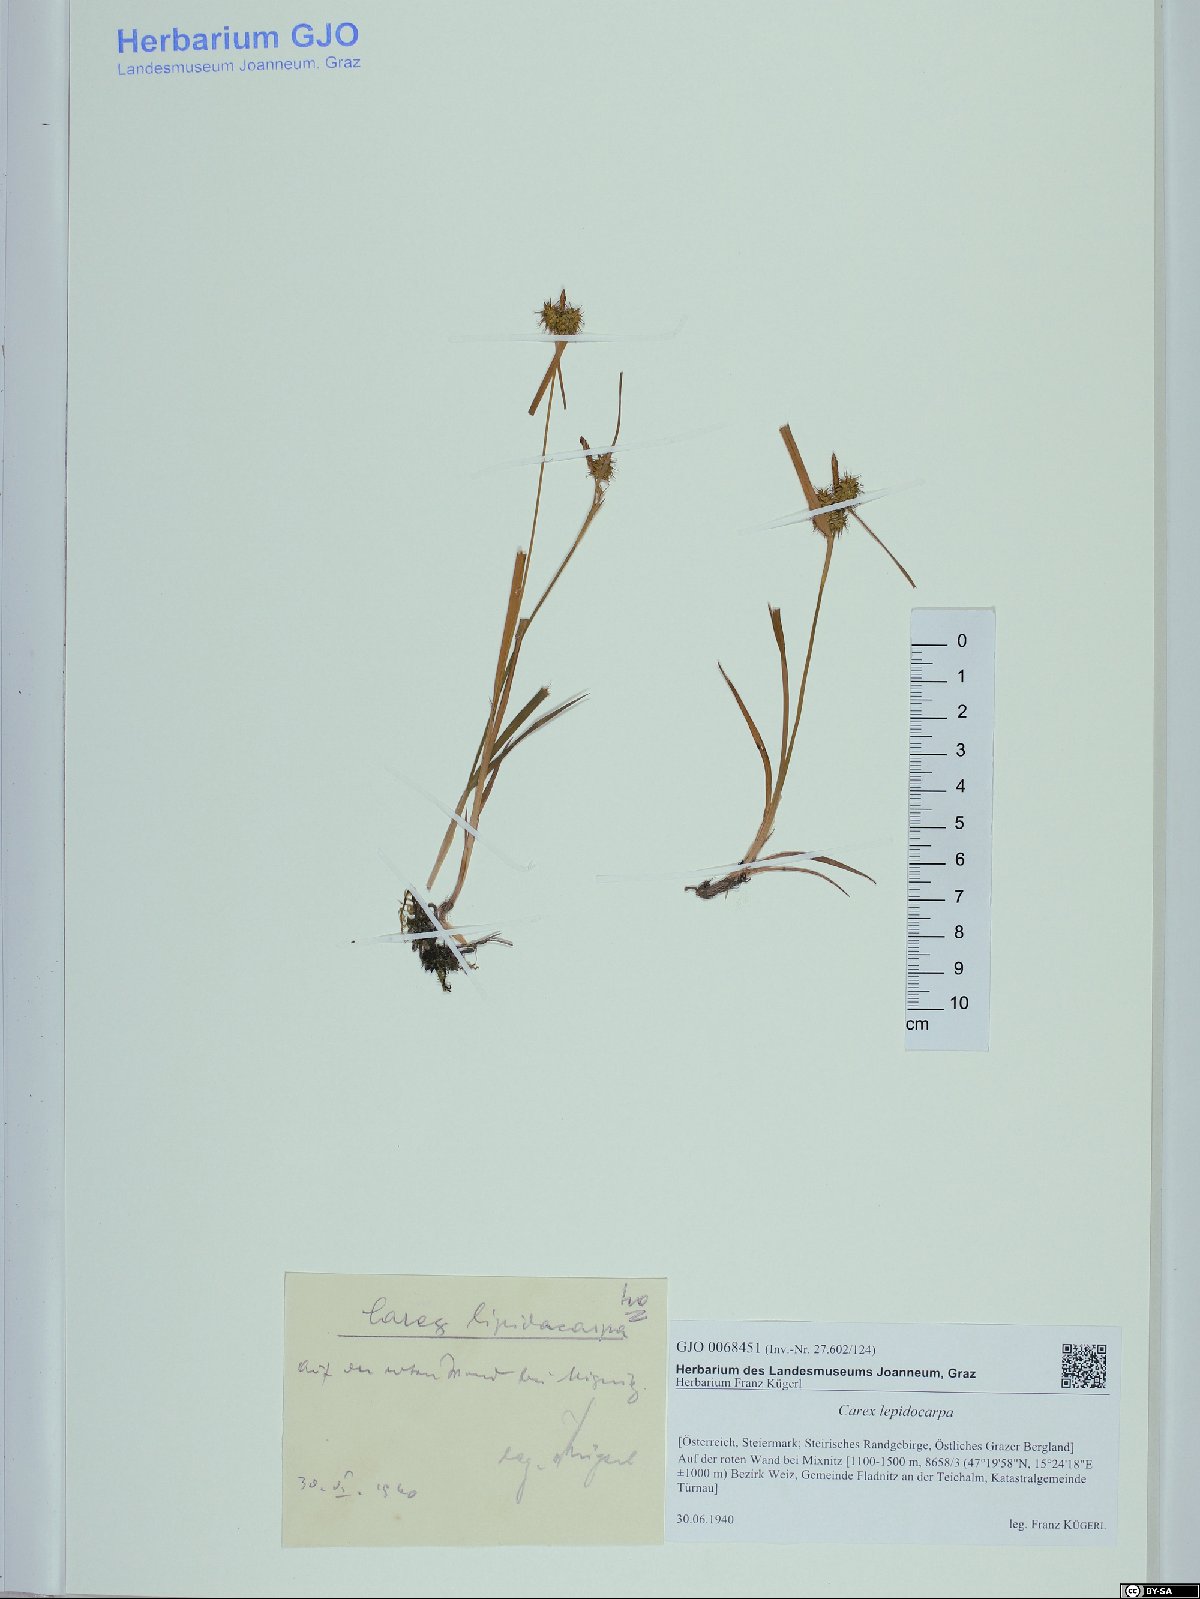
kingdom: Plantae
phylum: Tracheophyta
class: Liliopsida
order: Poales
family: Cyperaceae
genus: Carex
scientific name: Carex lepidocarpa
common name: Long-stalked yellow-sedge
